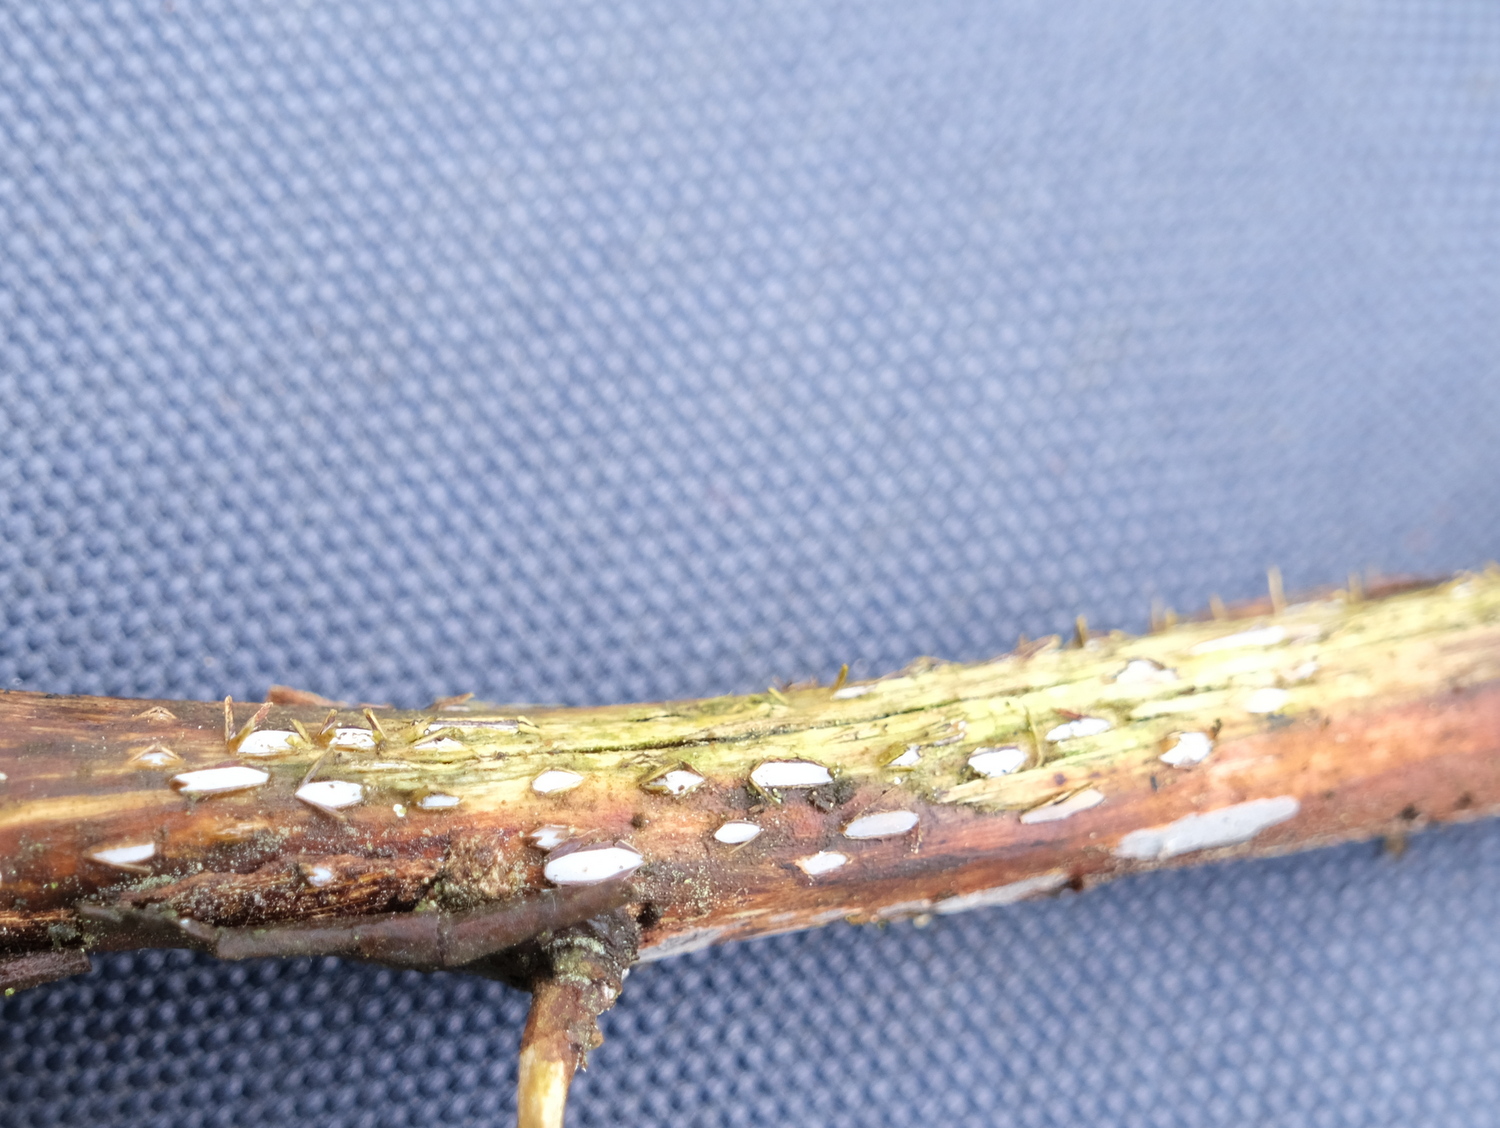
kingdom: Fungi
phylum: Ascomycota
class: Leotiomycetes
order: Chaetomellales
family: Marthamycetaceae
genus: Propolis
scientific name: Propolis farinosa
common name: almindelig vedsprængerskive
